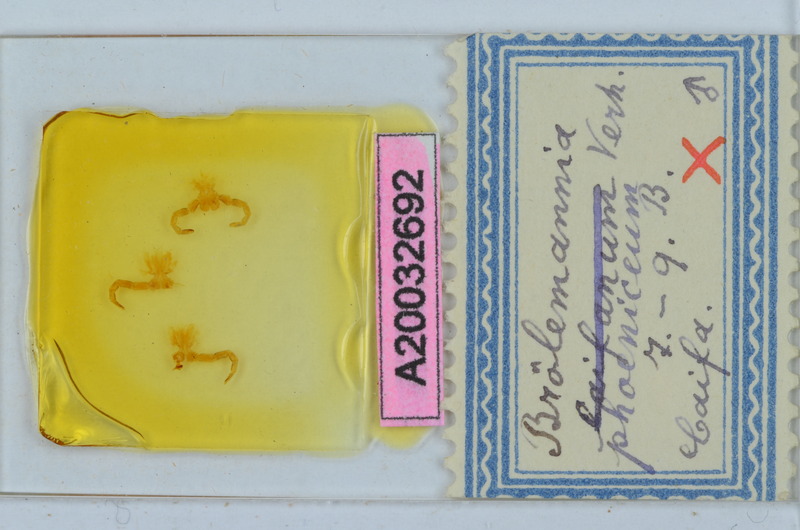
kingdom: Animalia
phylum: Arthropoda
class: Diplopoda
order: Callipodida
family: Schizopetalidae
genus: Broelemannia
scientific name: Broelemannia phoenicea
